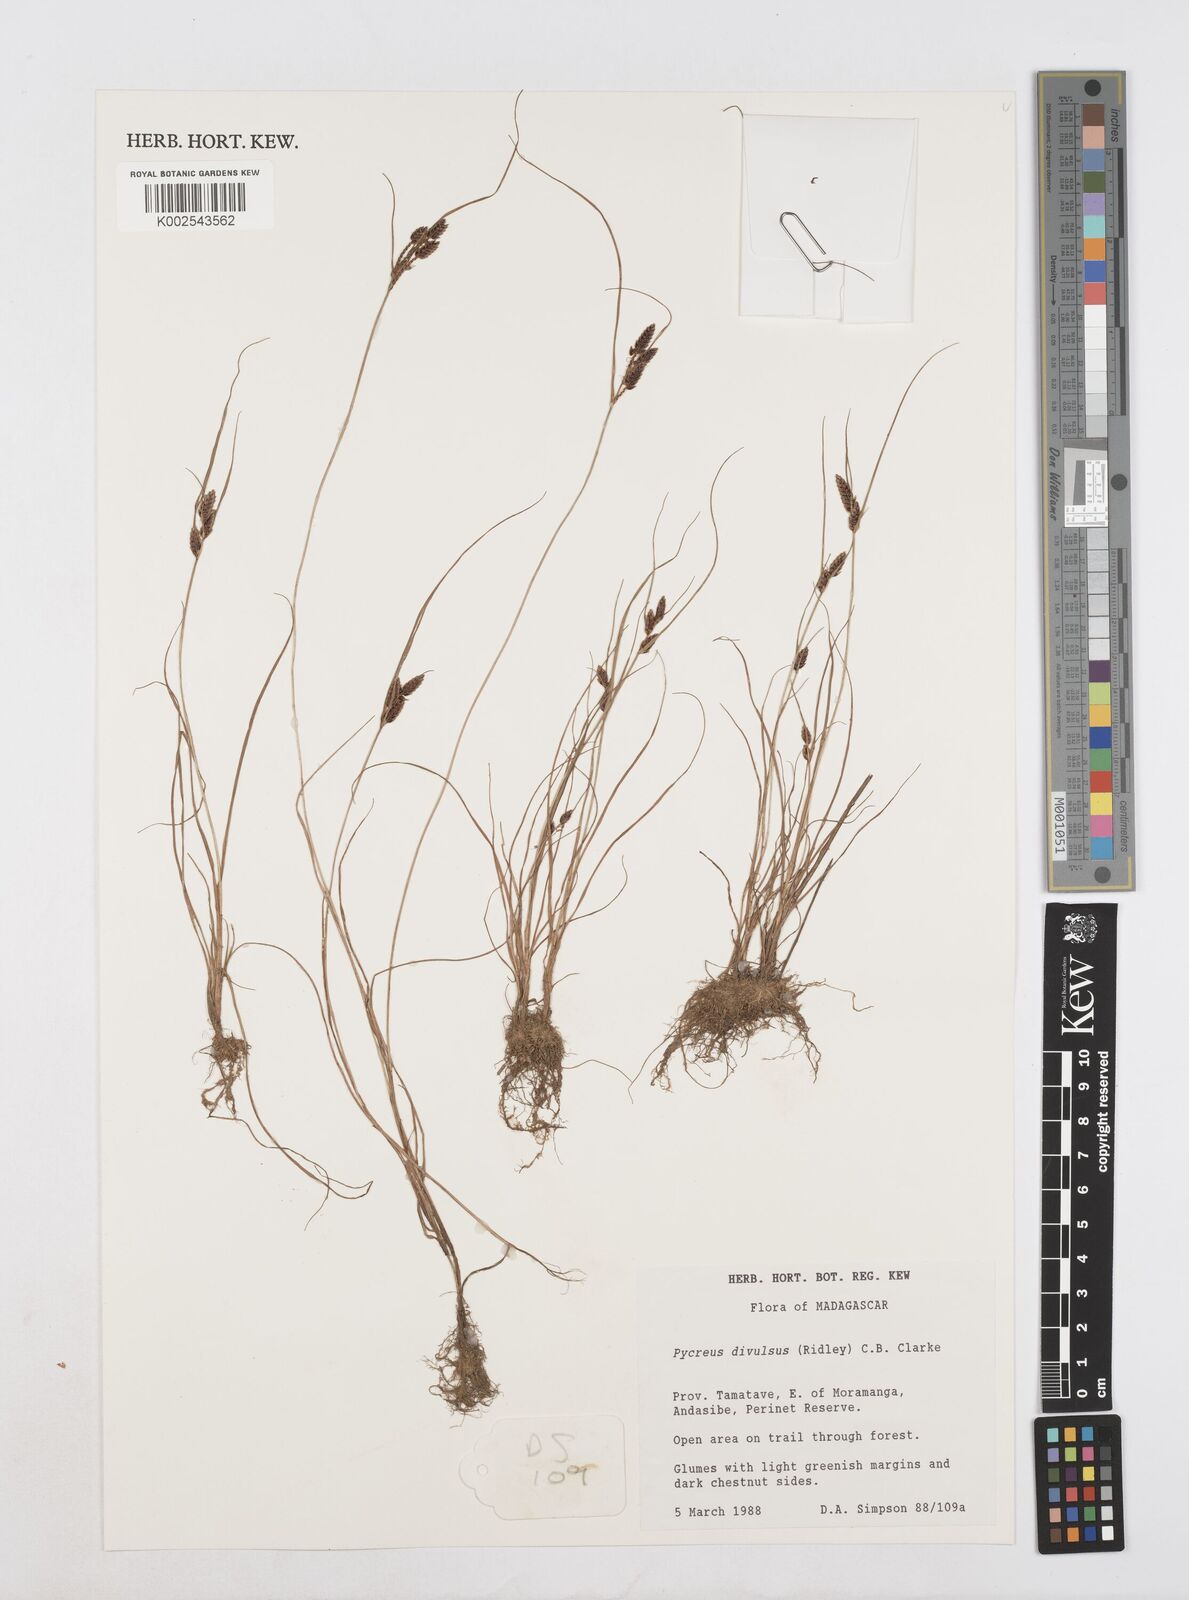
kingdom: Plantae
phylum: Tracheophyta
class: Liliopsida
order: Poales
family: Cyperaceae
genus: Cyperus
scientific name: Cyperus divulsus
